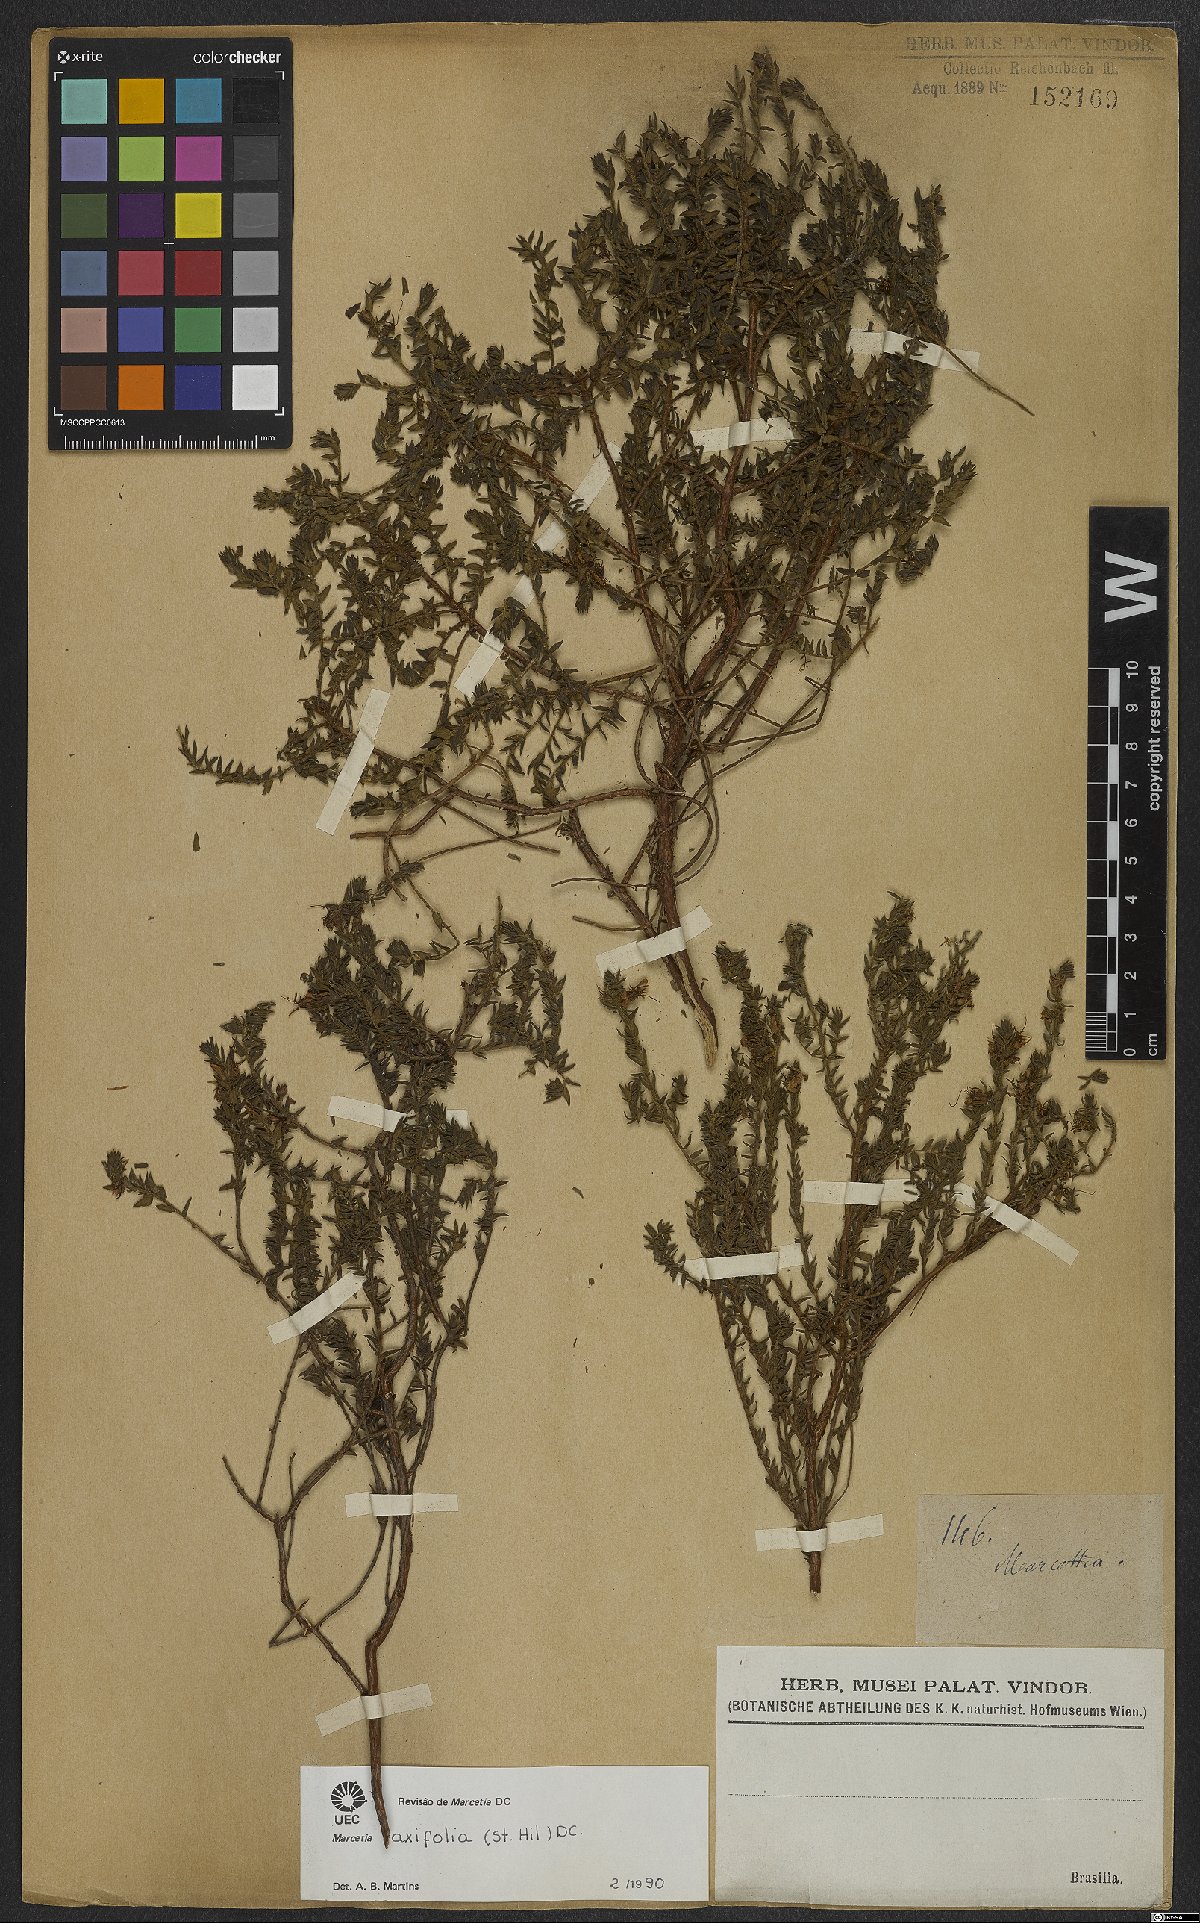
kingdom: Plantae
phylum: Tracheophyta
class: Magnoliopsida
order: Myrtales
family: Melastomataceae
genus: Marcetia
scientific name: Marcetia taxifolia
